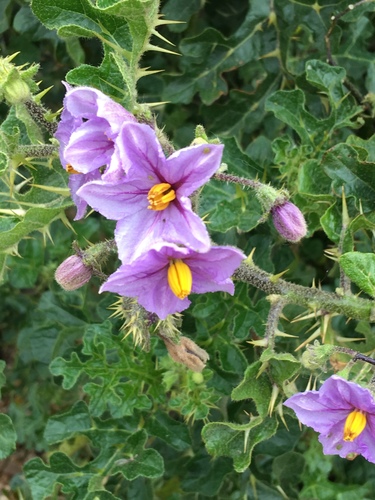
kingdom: Plantae
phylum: Tracheophyta
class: Magnoliopsida
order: Solanales
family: Solanaceae
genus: Solanum
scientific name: Solanum
